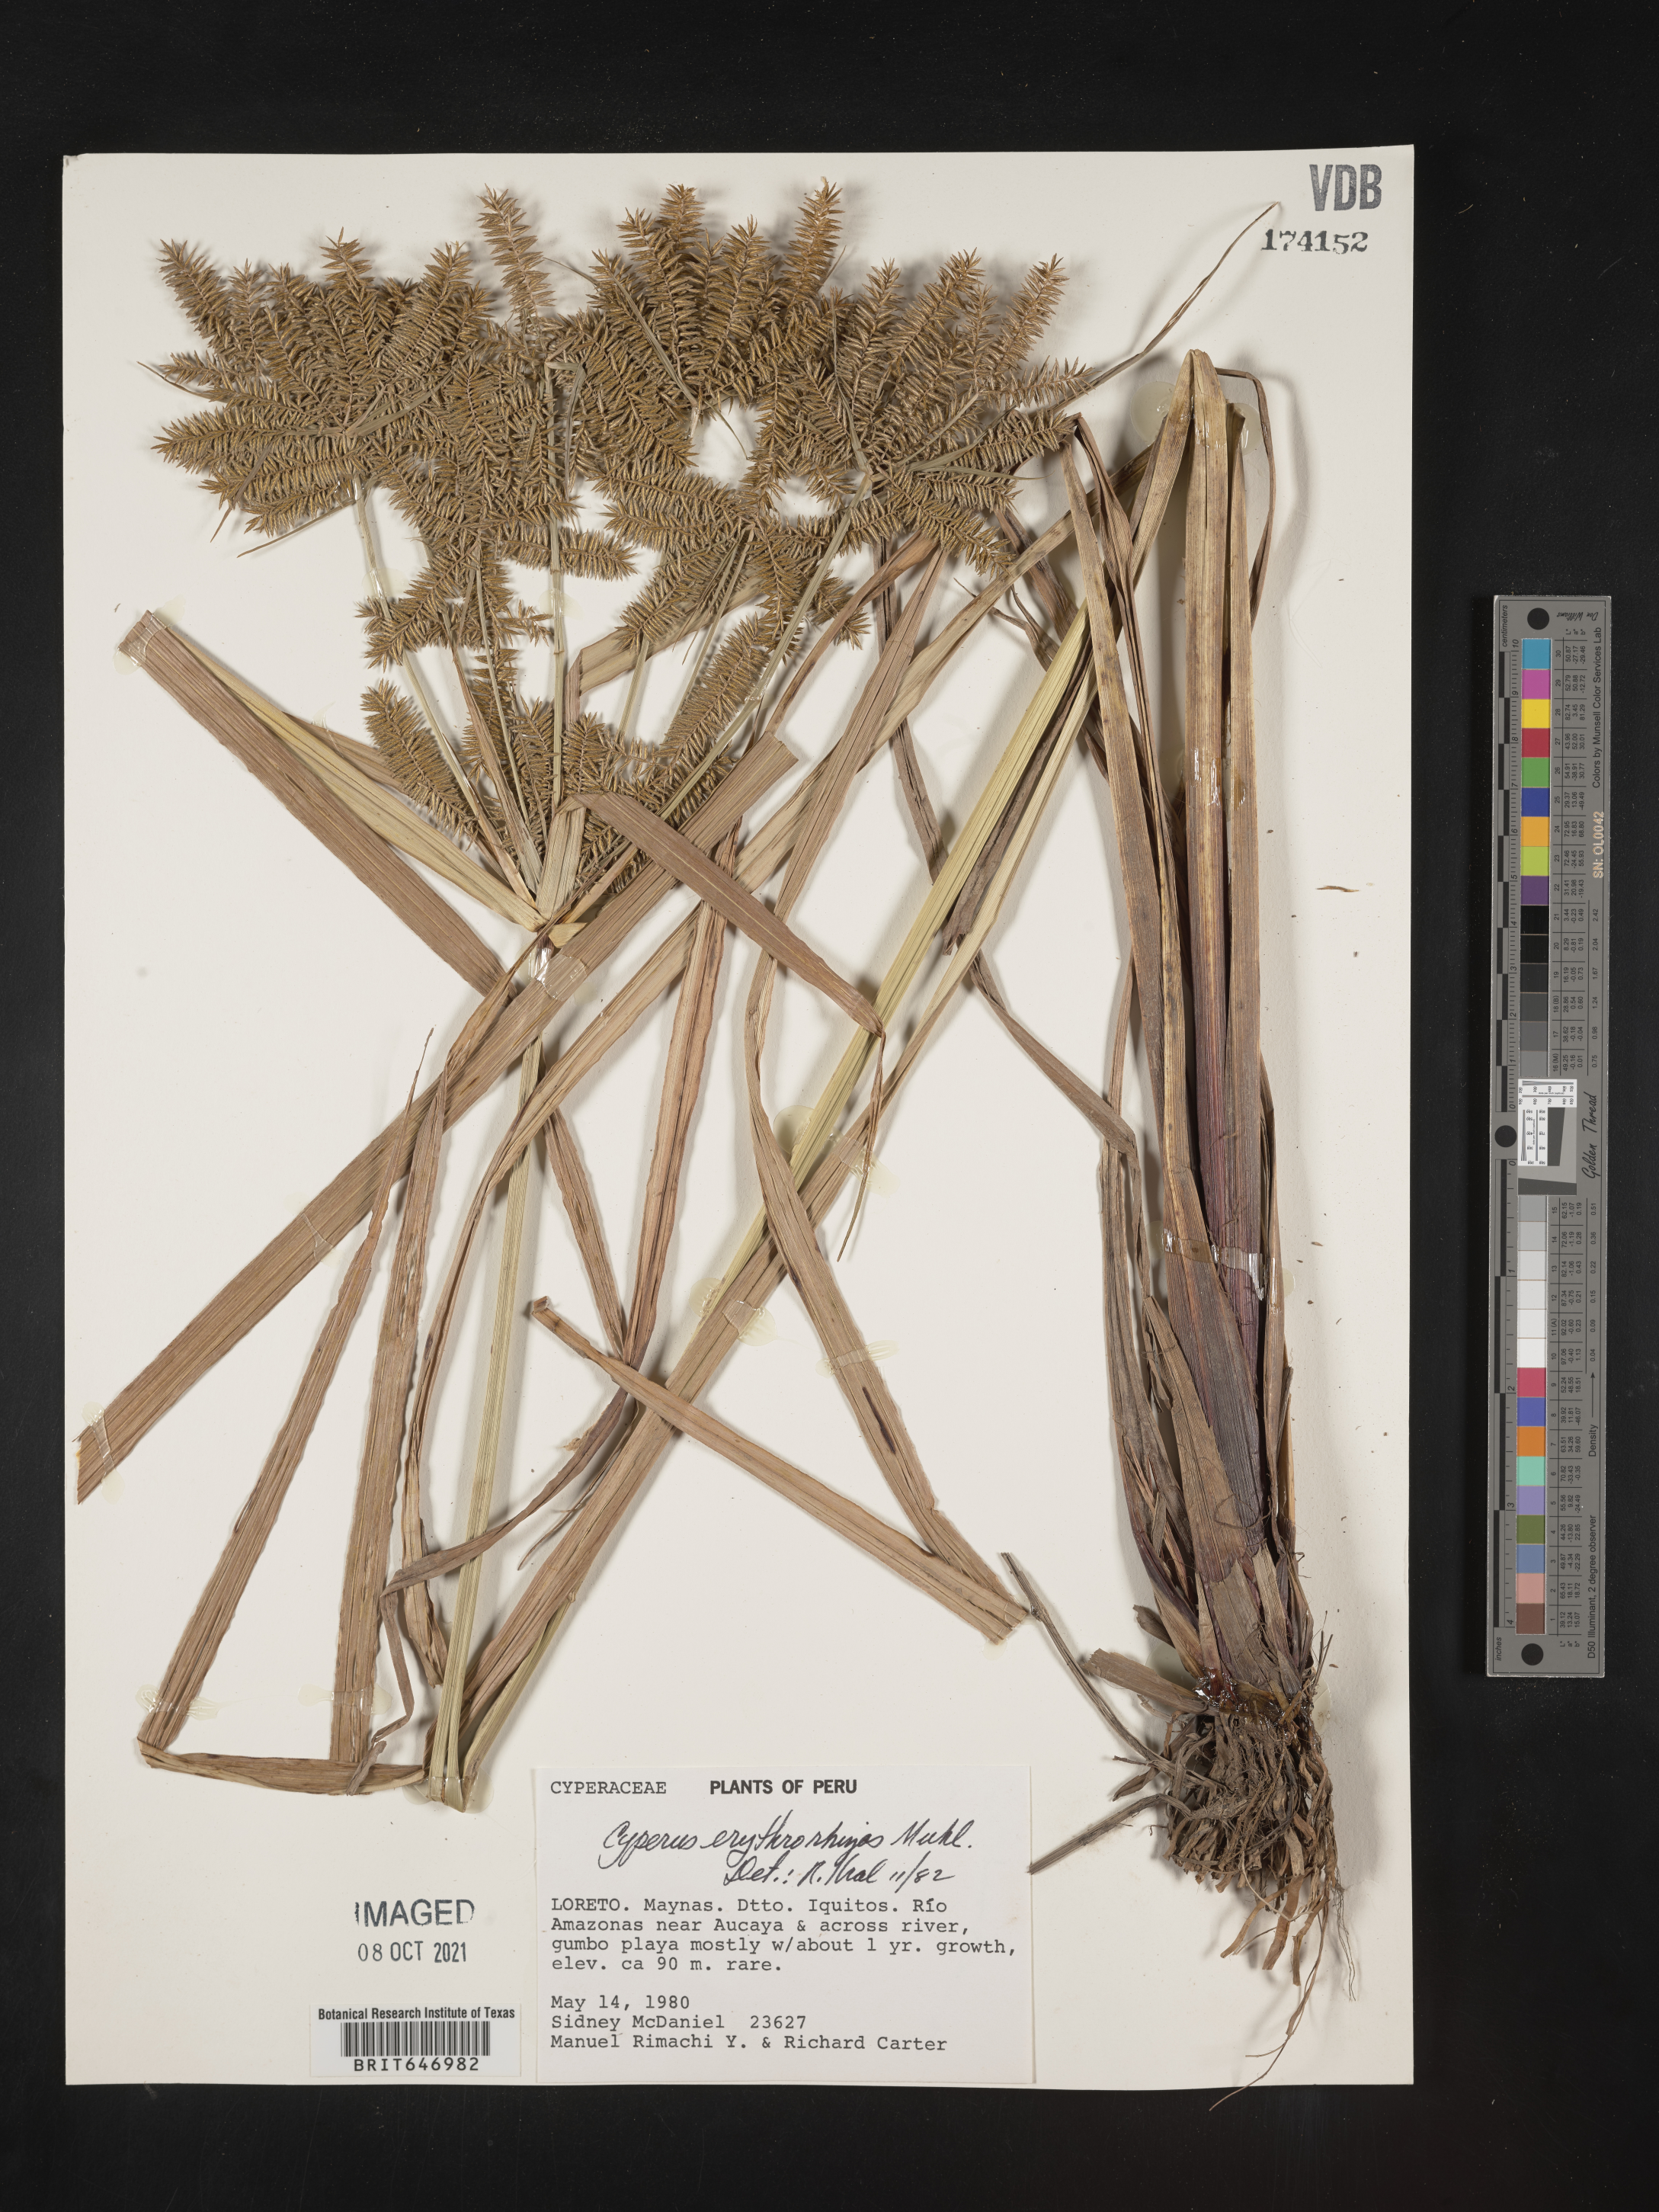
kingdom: Plantae
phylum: Tracheophyta
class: Liliopsida
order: Poales
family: Cyperaceae
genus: Cyperus
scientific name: Cyperus erythrorhizos
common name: Red-root flat sedge
